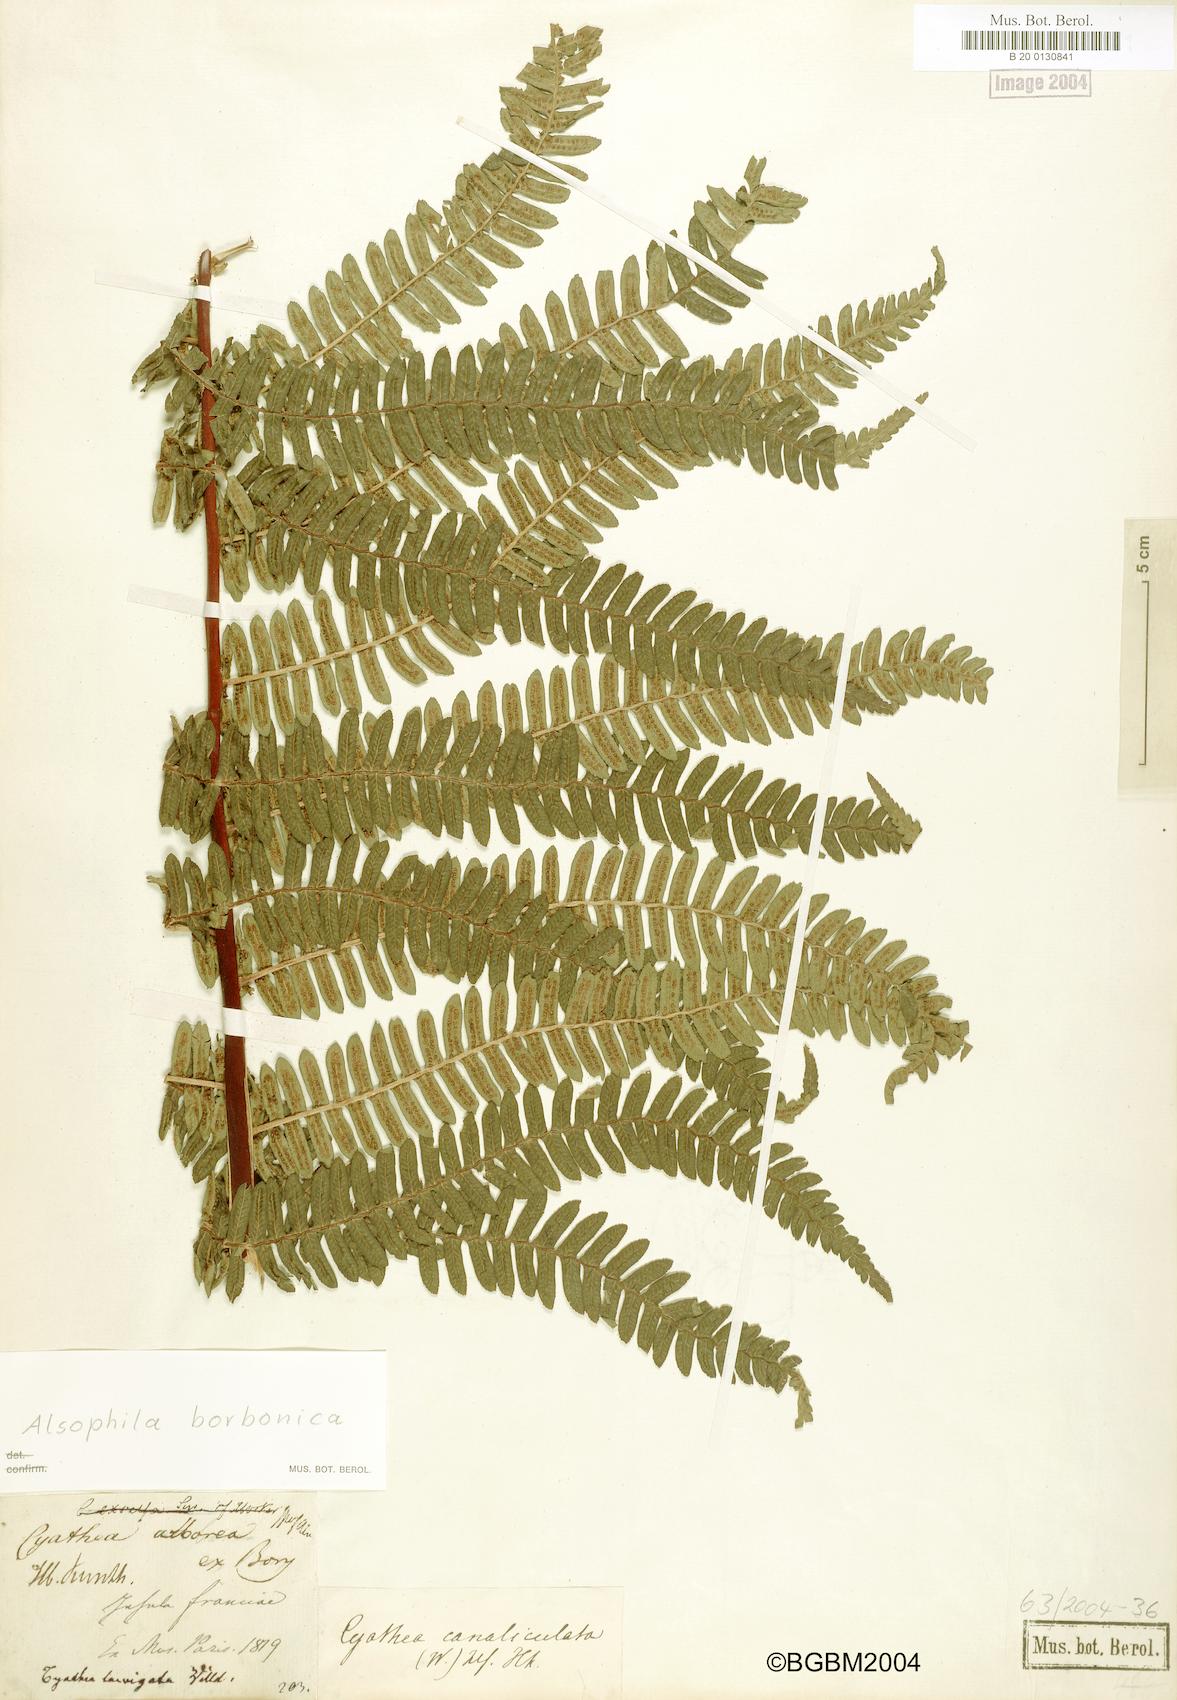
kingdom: Plantae
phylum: Tracheophyta
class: Polypodiopsida
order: Cyatheales
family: Cyatheaceae
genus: Alsophila
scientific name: Alsophila borbonica
